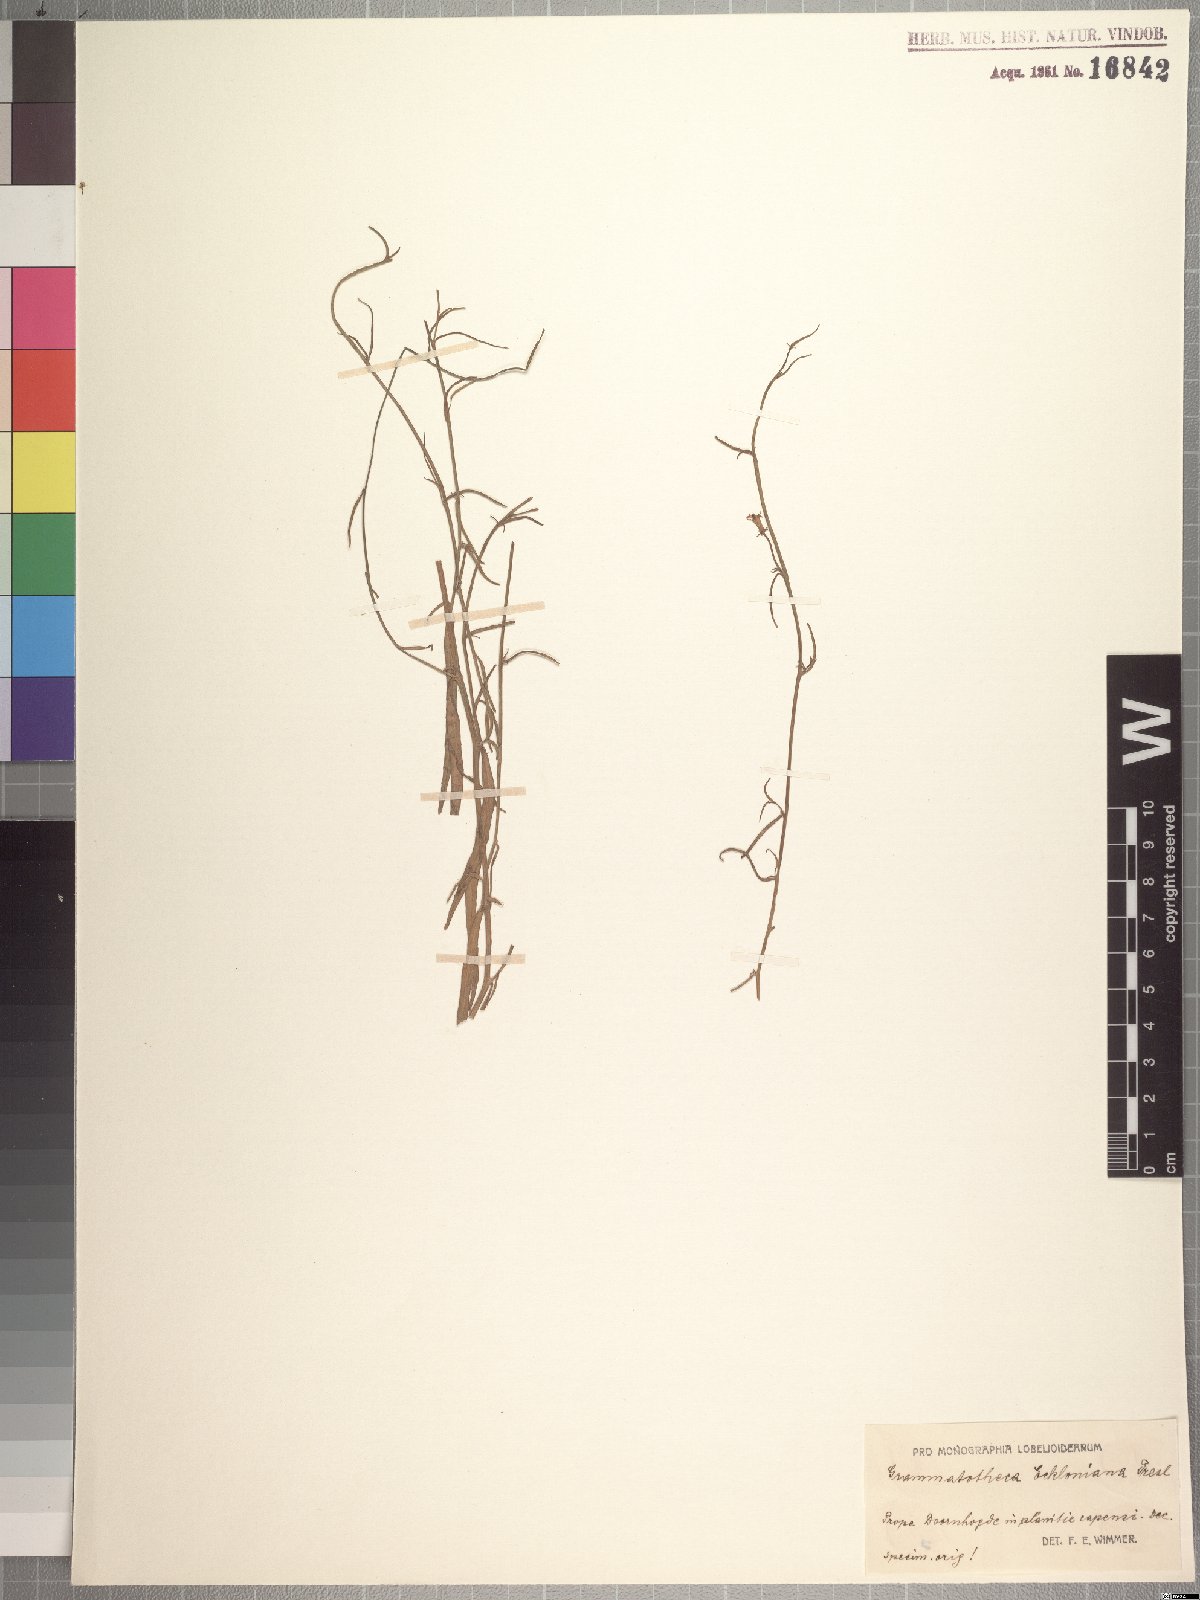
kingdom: Plantae
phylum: Tracheophyta
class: Magnoliopsida
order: Asterales
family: Campanulaceae
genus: Grammatotheca
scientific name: Grammatotheca bergiana
